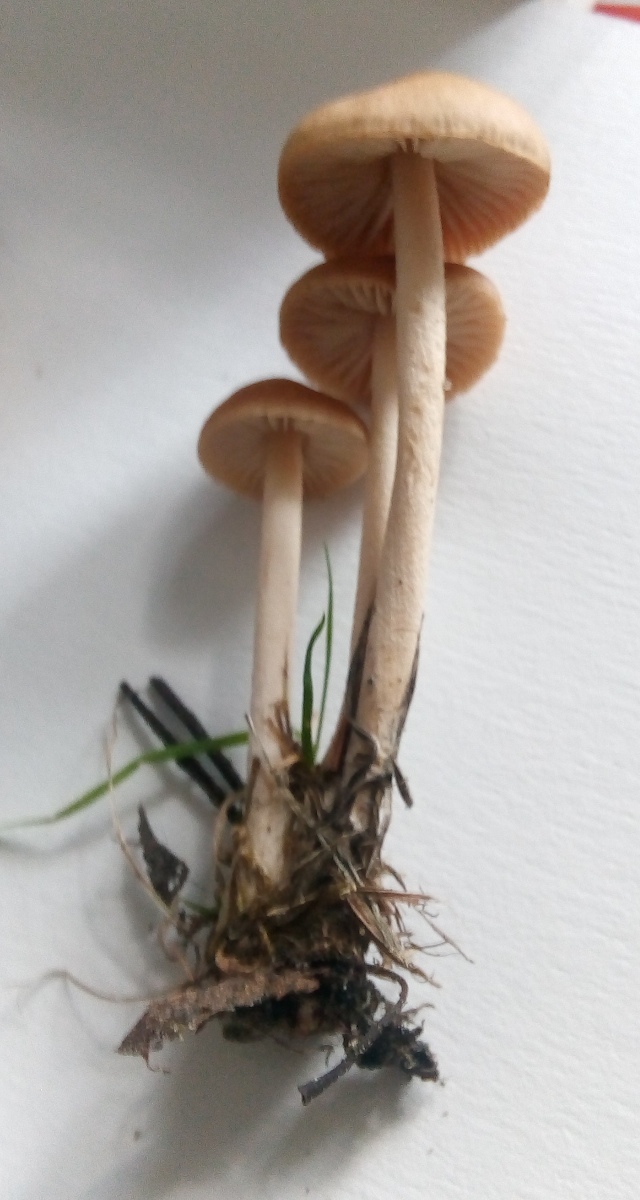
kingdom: Fungi
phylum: Basidiomycota
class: Agaricomycetes
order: Agaricales
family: Marasmiaceae
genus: Marasmius
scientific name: Marasmius oreades
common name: elledans-bruskhat
